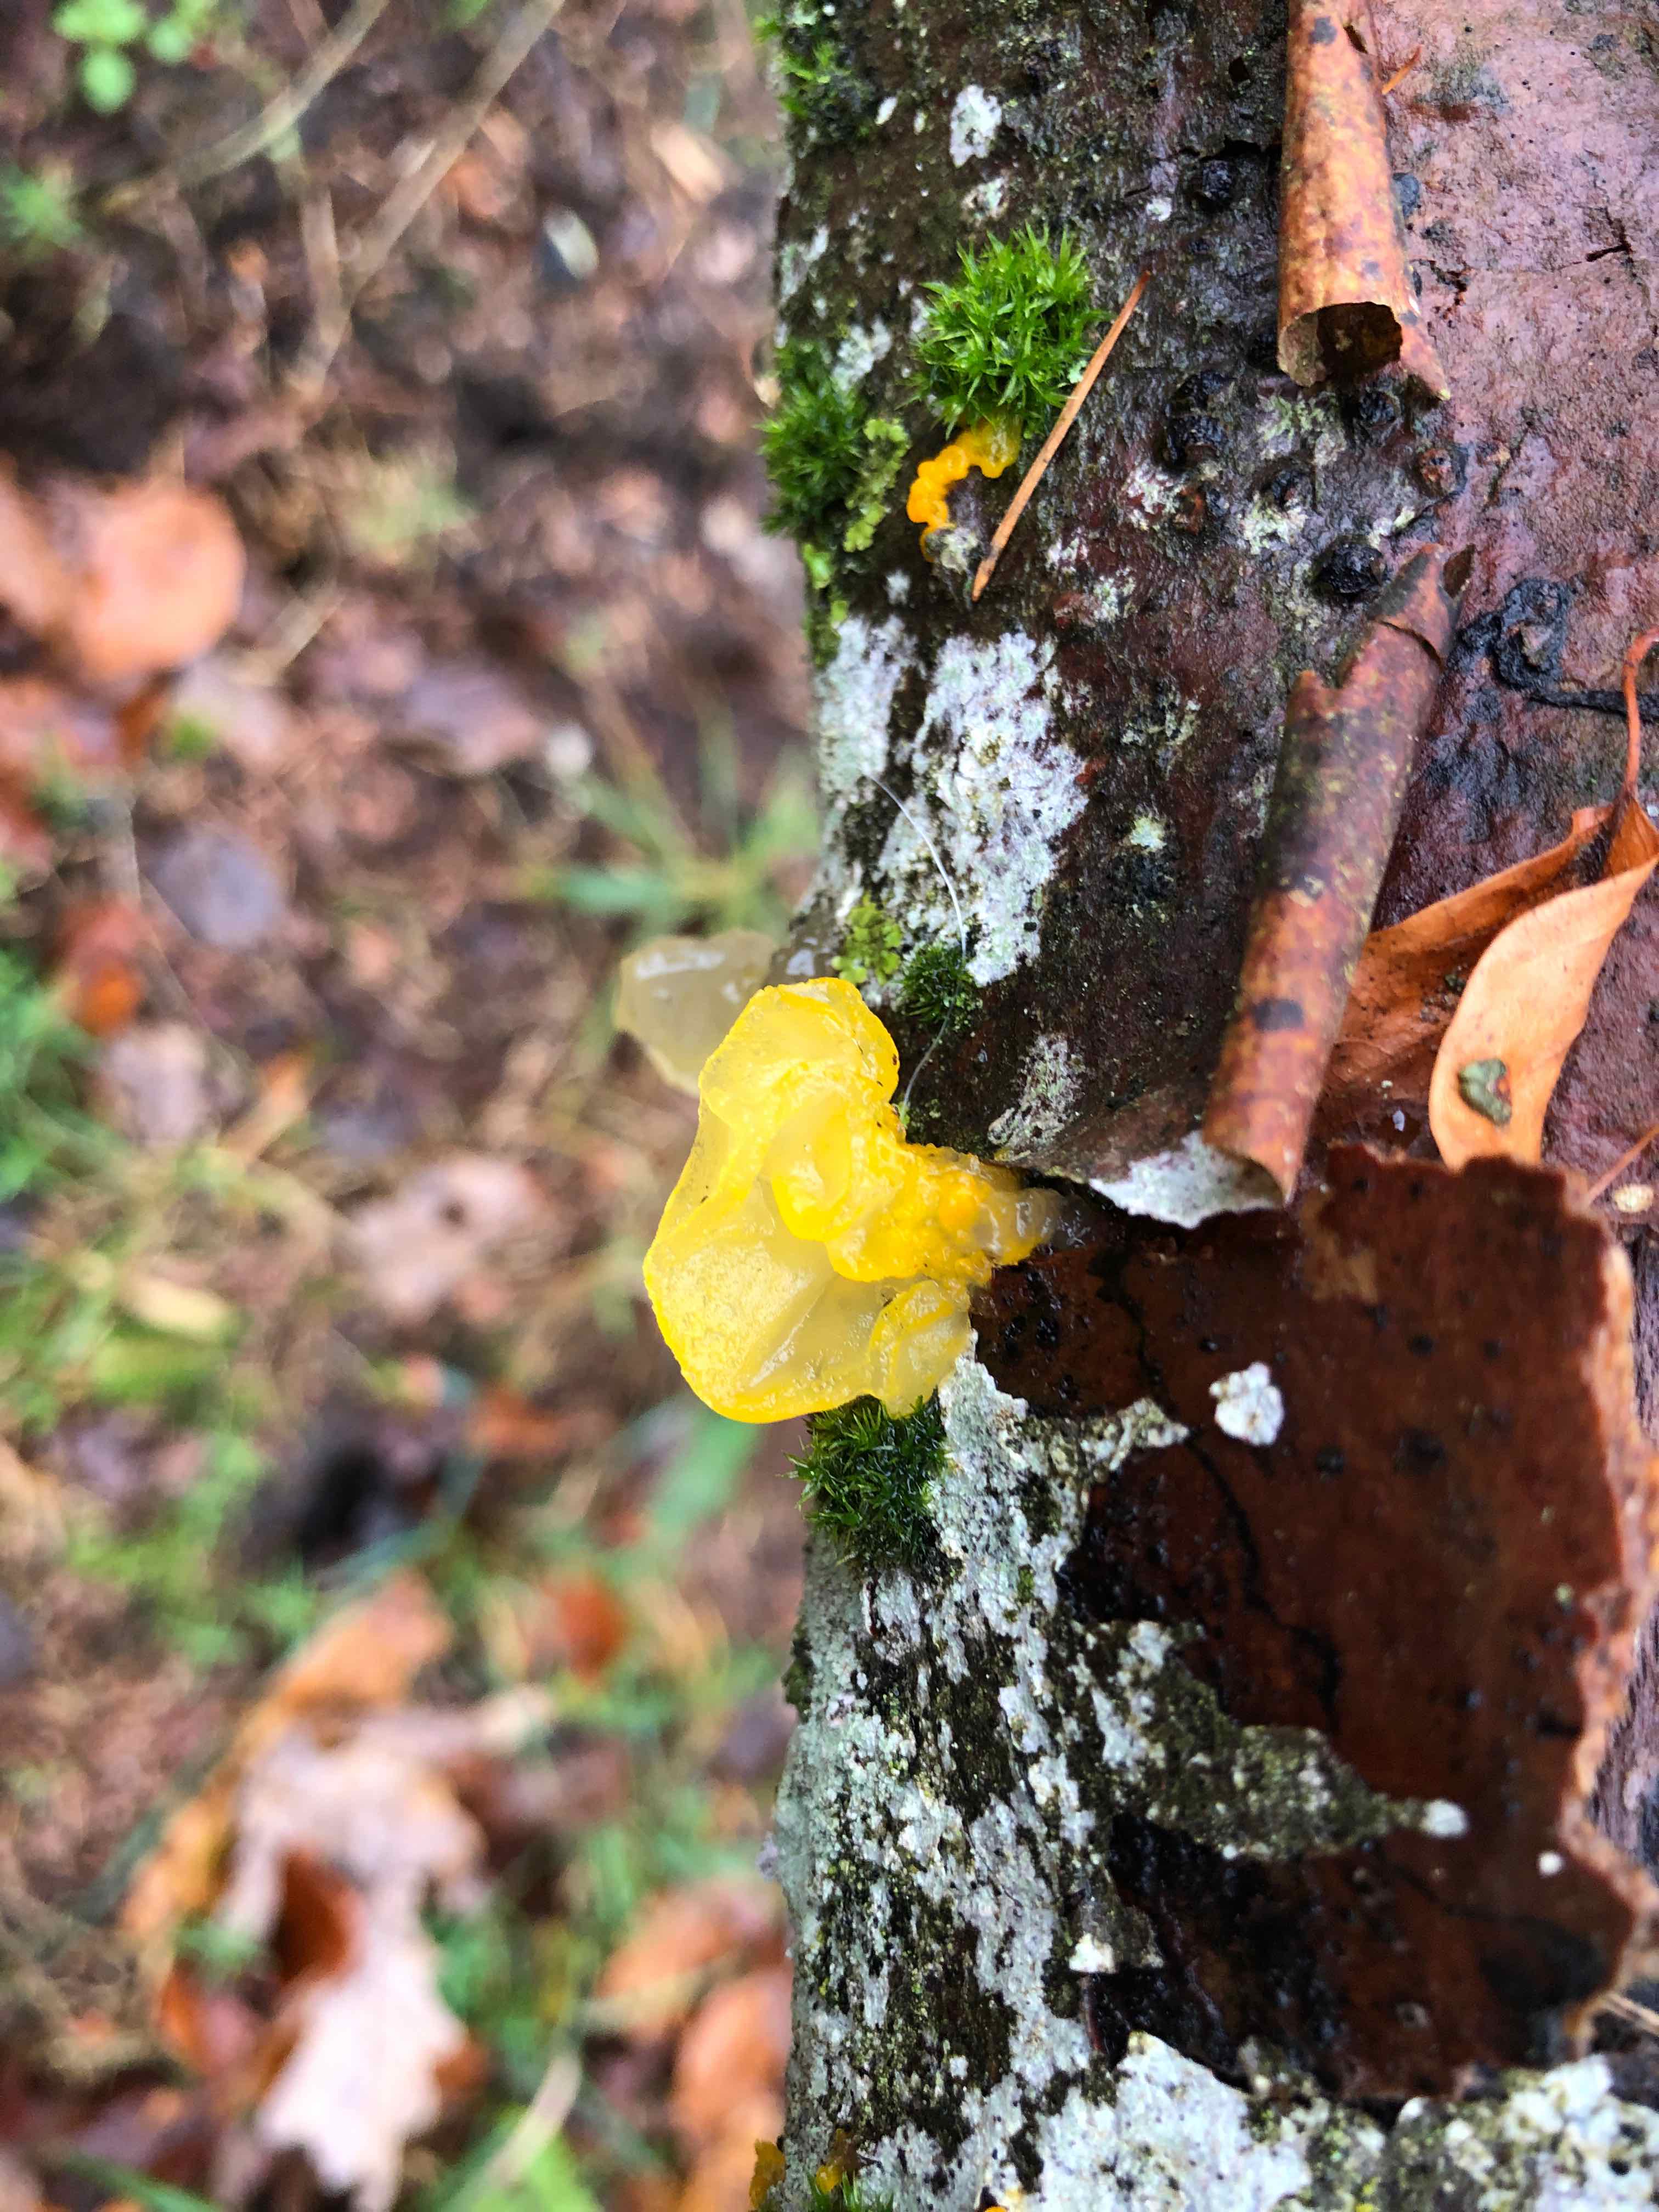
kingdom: Fungi
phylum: Basidiomycota
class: Tremellomycetes
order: Tremellales
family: Tremellaceae
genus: Tremella
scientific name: Tremella mesenterica
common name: gul bævresvamp
